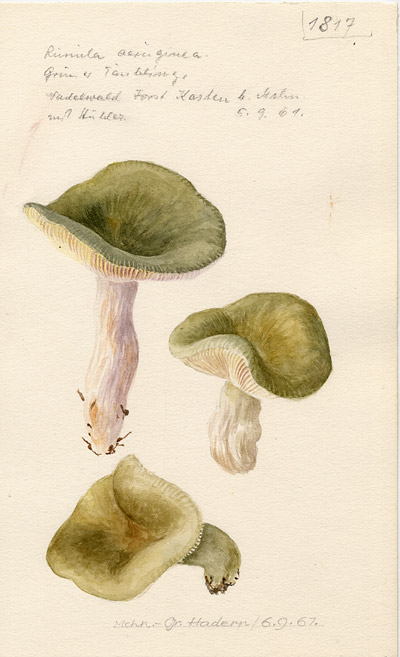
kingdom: Fungi
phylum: Basidiomycota
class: Agaricomycetes
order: Russulales
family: Russulaceae
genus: Russula
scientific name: Russula aeruginea
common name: Green brittlegill
